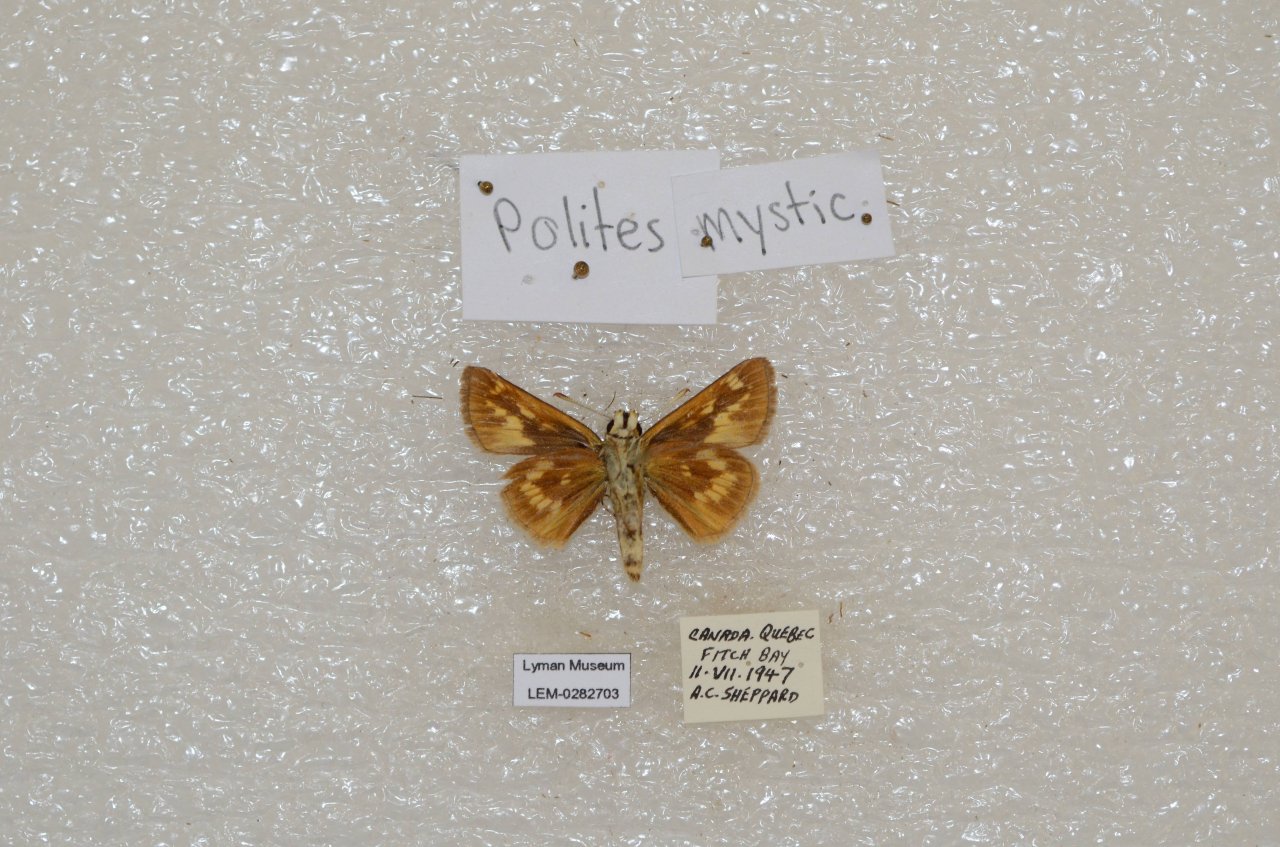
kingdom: Animalia
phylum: Arthropoda
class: Insecta
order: Lepidoptera
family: Hesperiidae
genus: Polites
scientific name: Polites
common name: Long Dash Skipper
